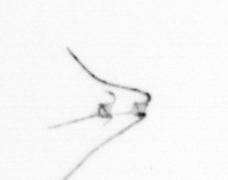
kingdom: Animalia
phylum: Annelida
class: Polychaeta
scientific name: Polychaeta
